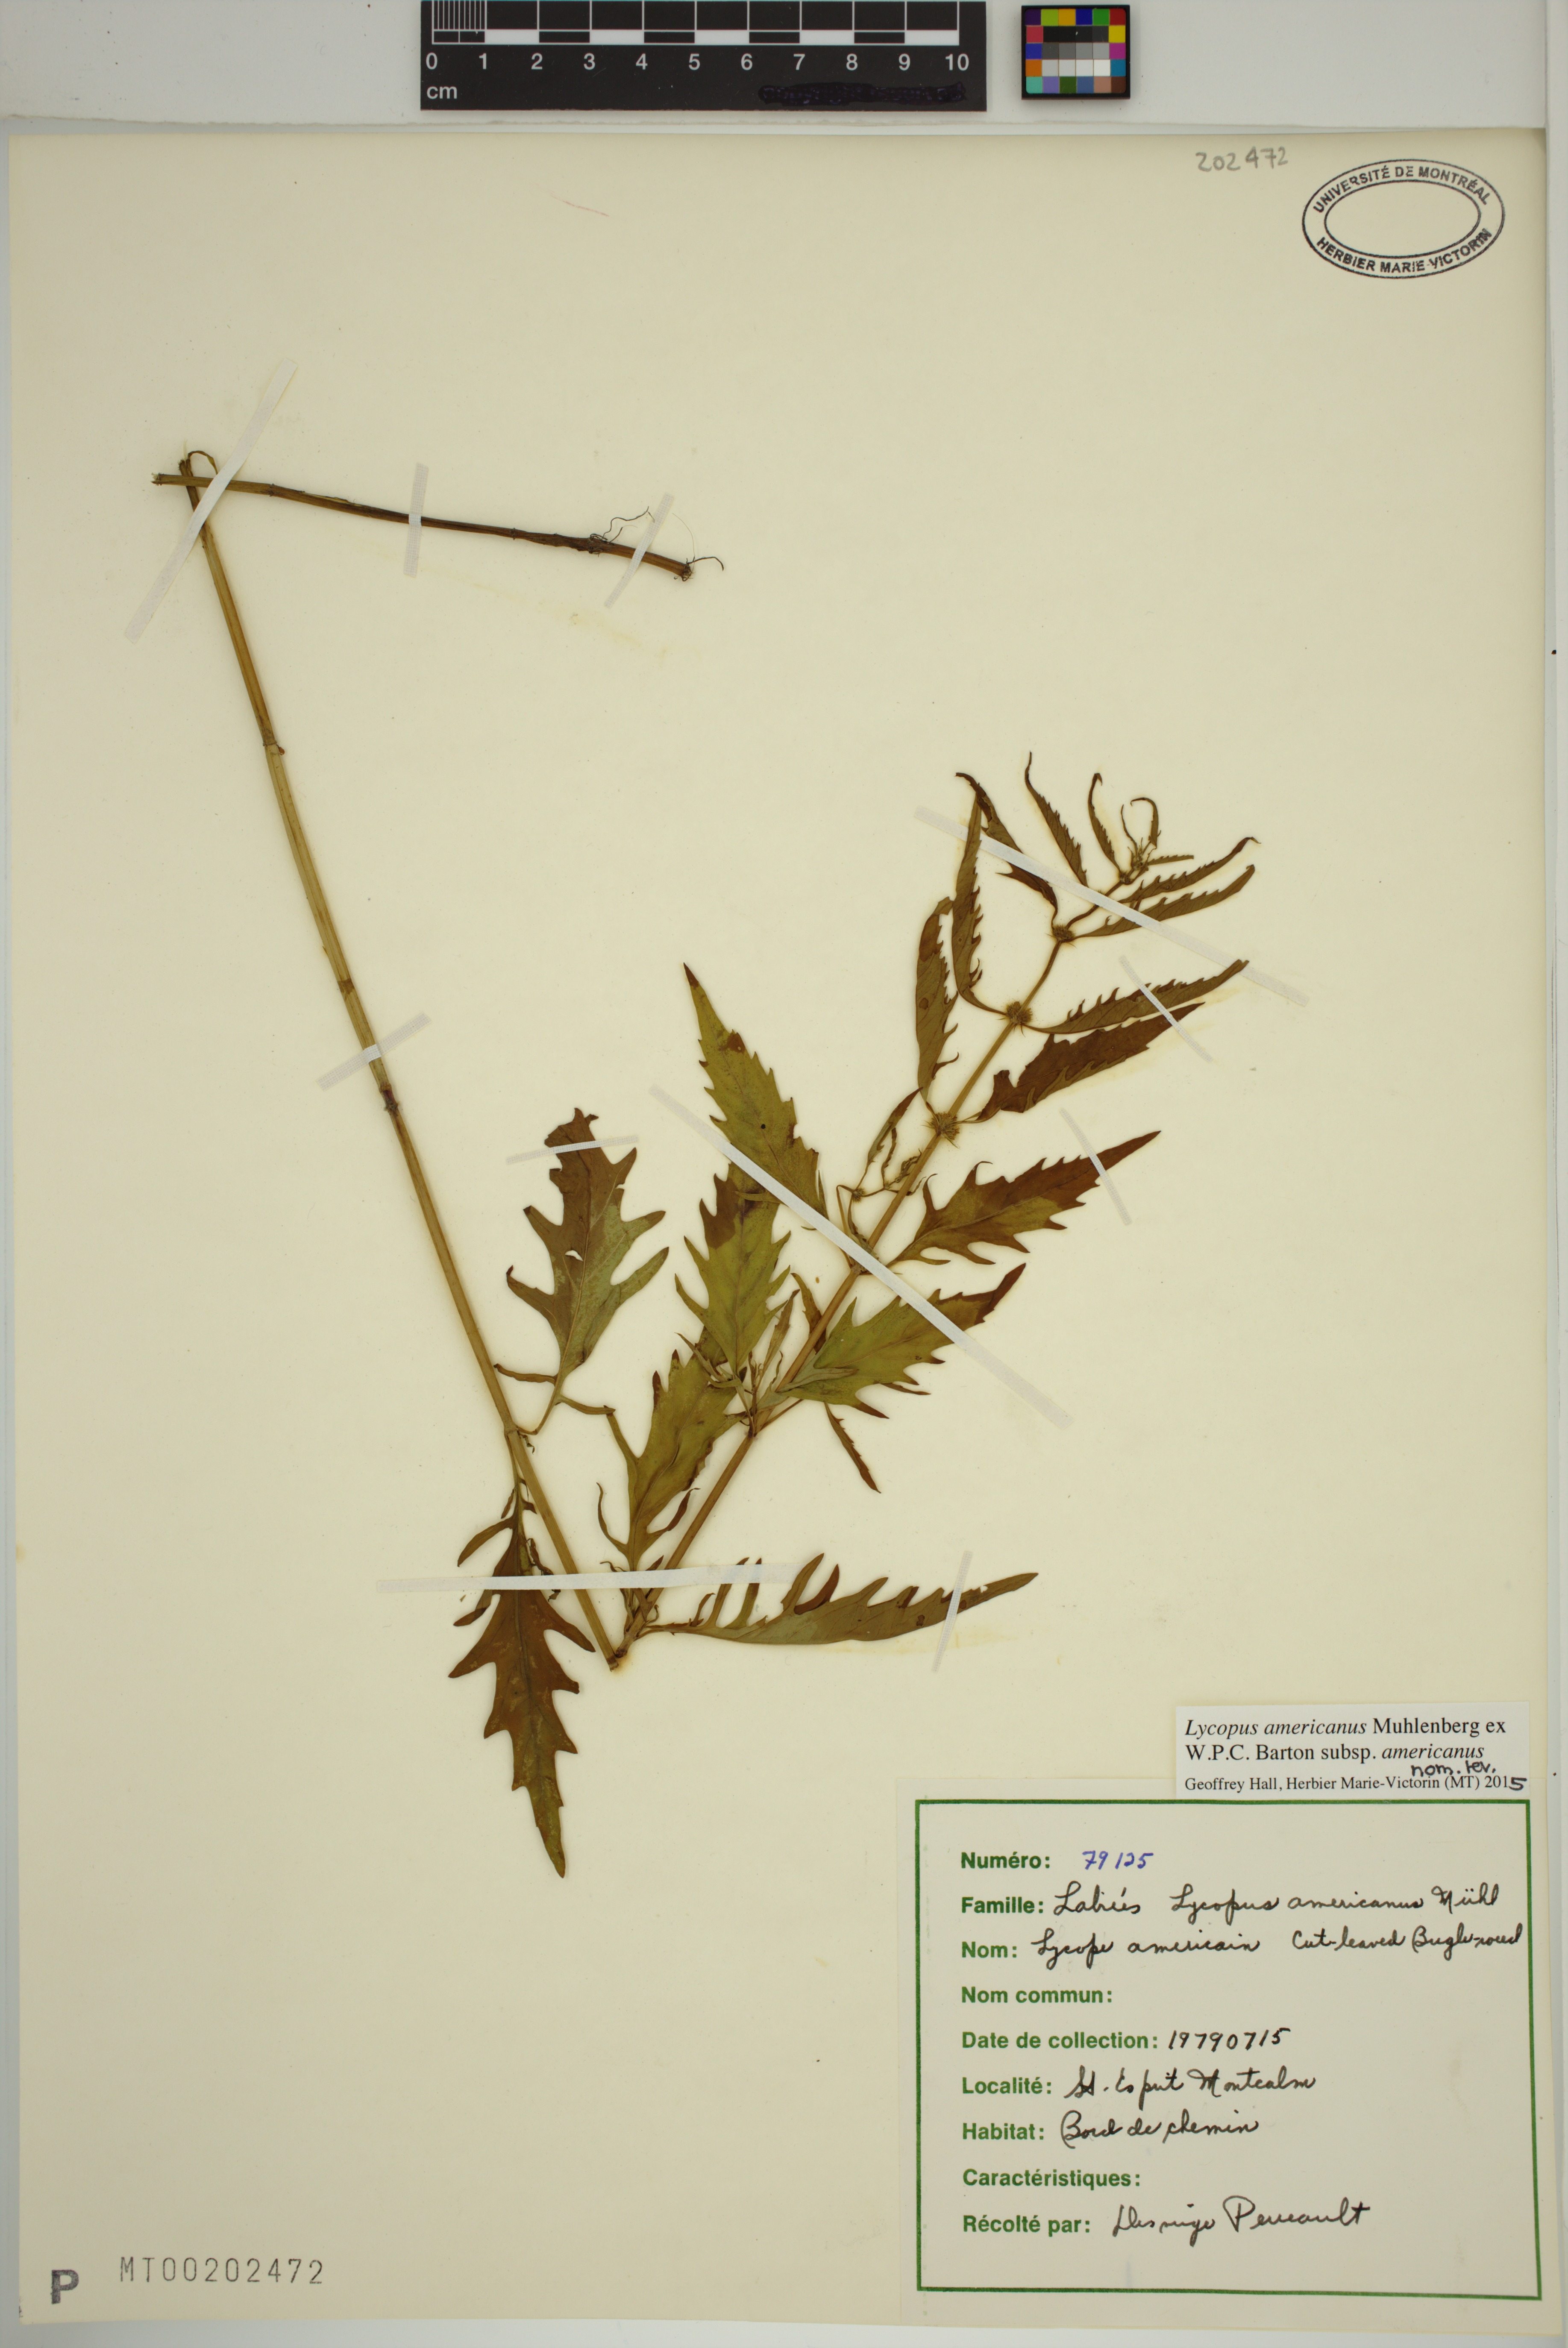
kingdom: Plantae
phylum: Tracheophyta
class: Magnoliopsida
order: Lamiales
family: Lamiaceae
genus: Lycopus
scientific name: Lycopus americanus
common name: American bugleweed
